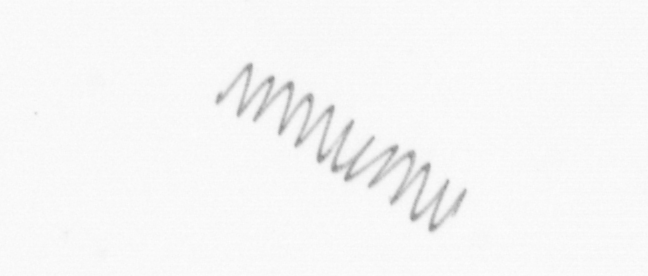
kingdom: Chromista
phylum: Ochrophyta
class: Bacillariophyceae
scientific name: Bacillariophyceae
